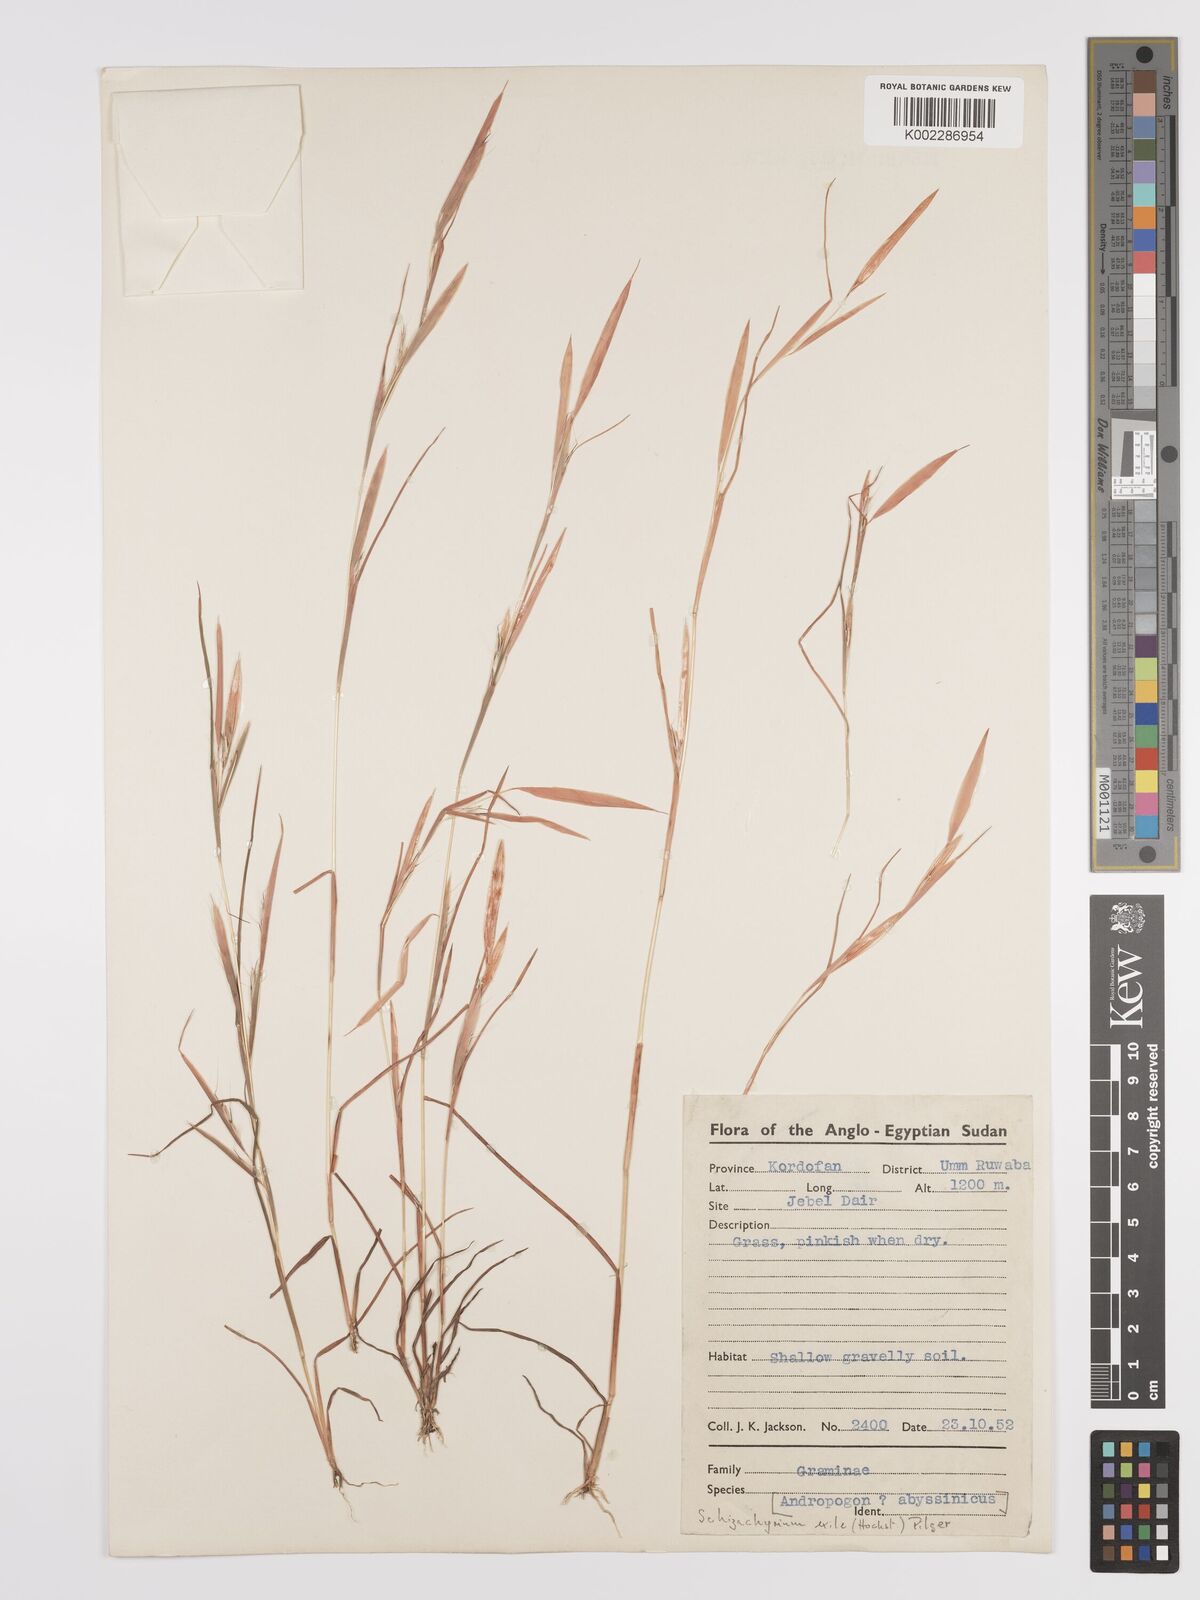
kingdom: Plantae
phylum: Tracheophyta
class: Liliopsida
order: Poales
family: Poaceae
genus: Schizachyrium
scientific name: Schizachyrium exile
